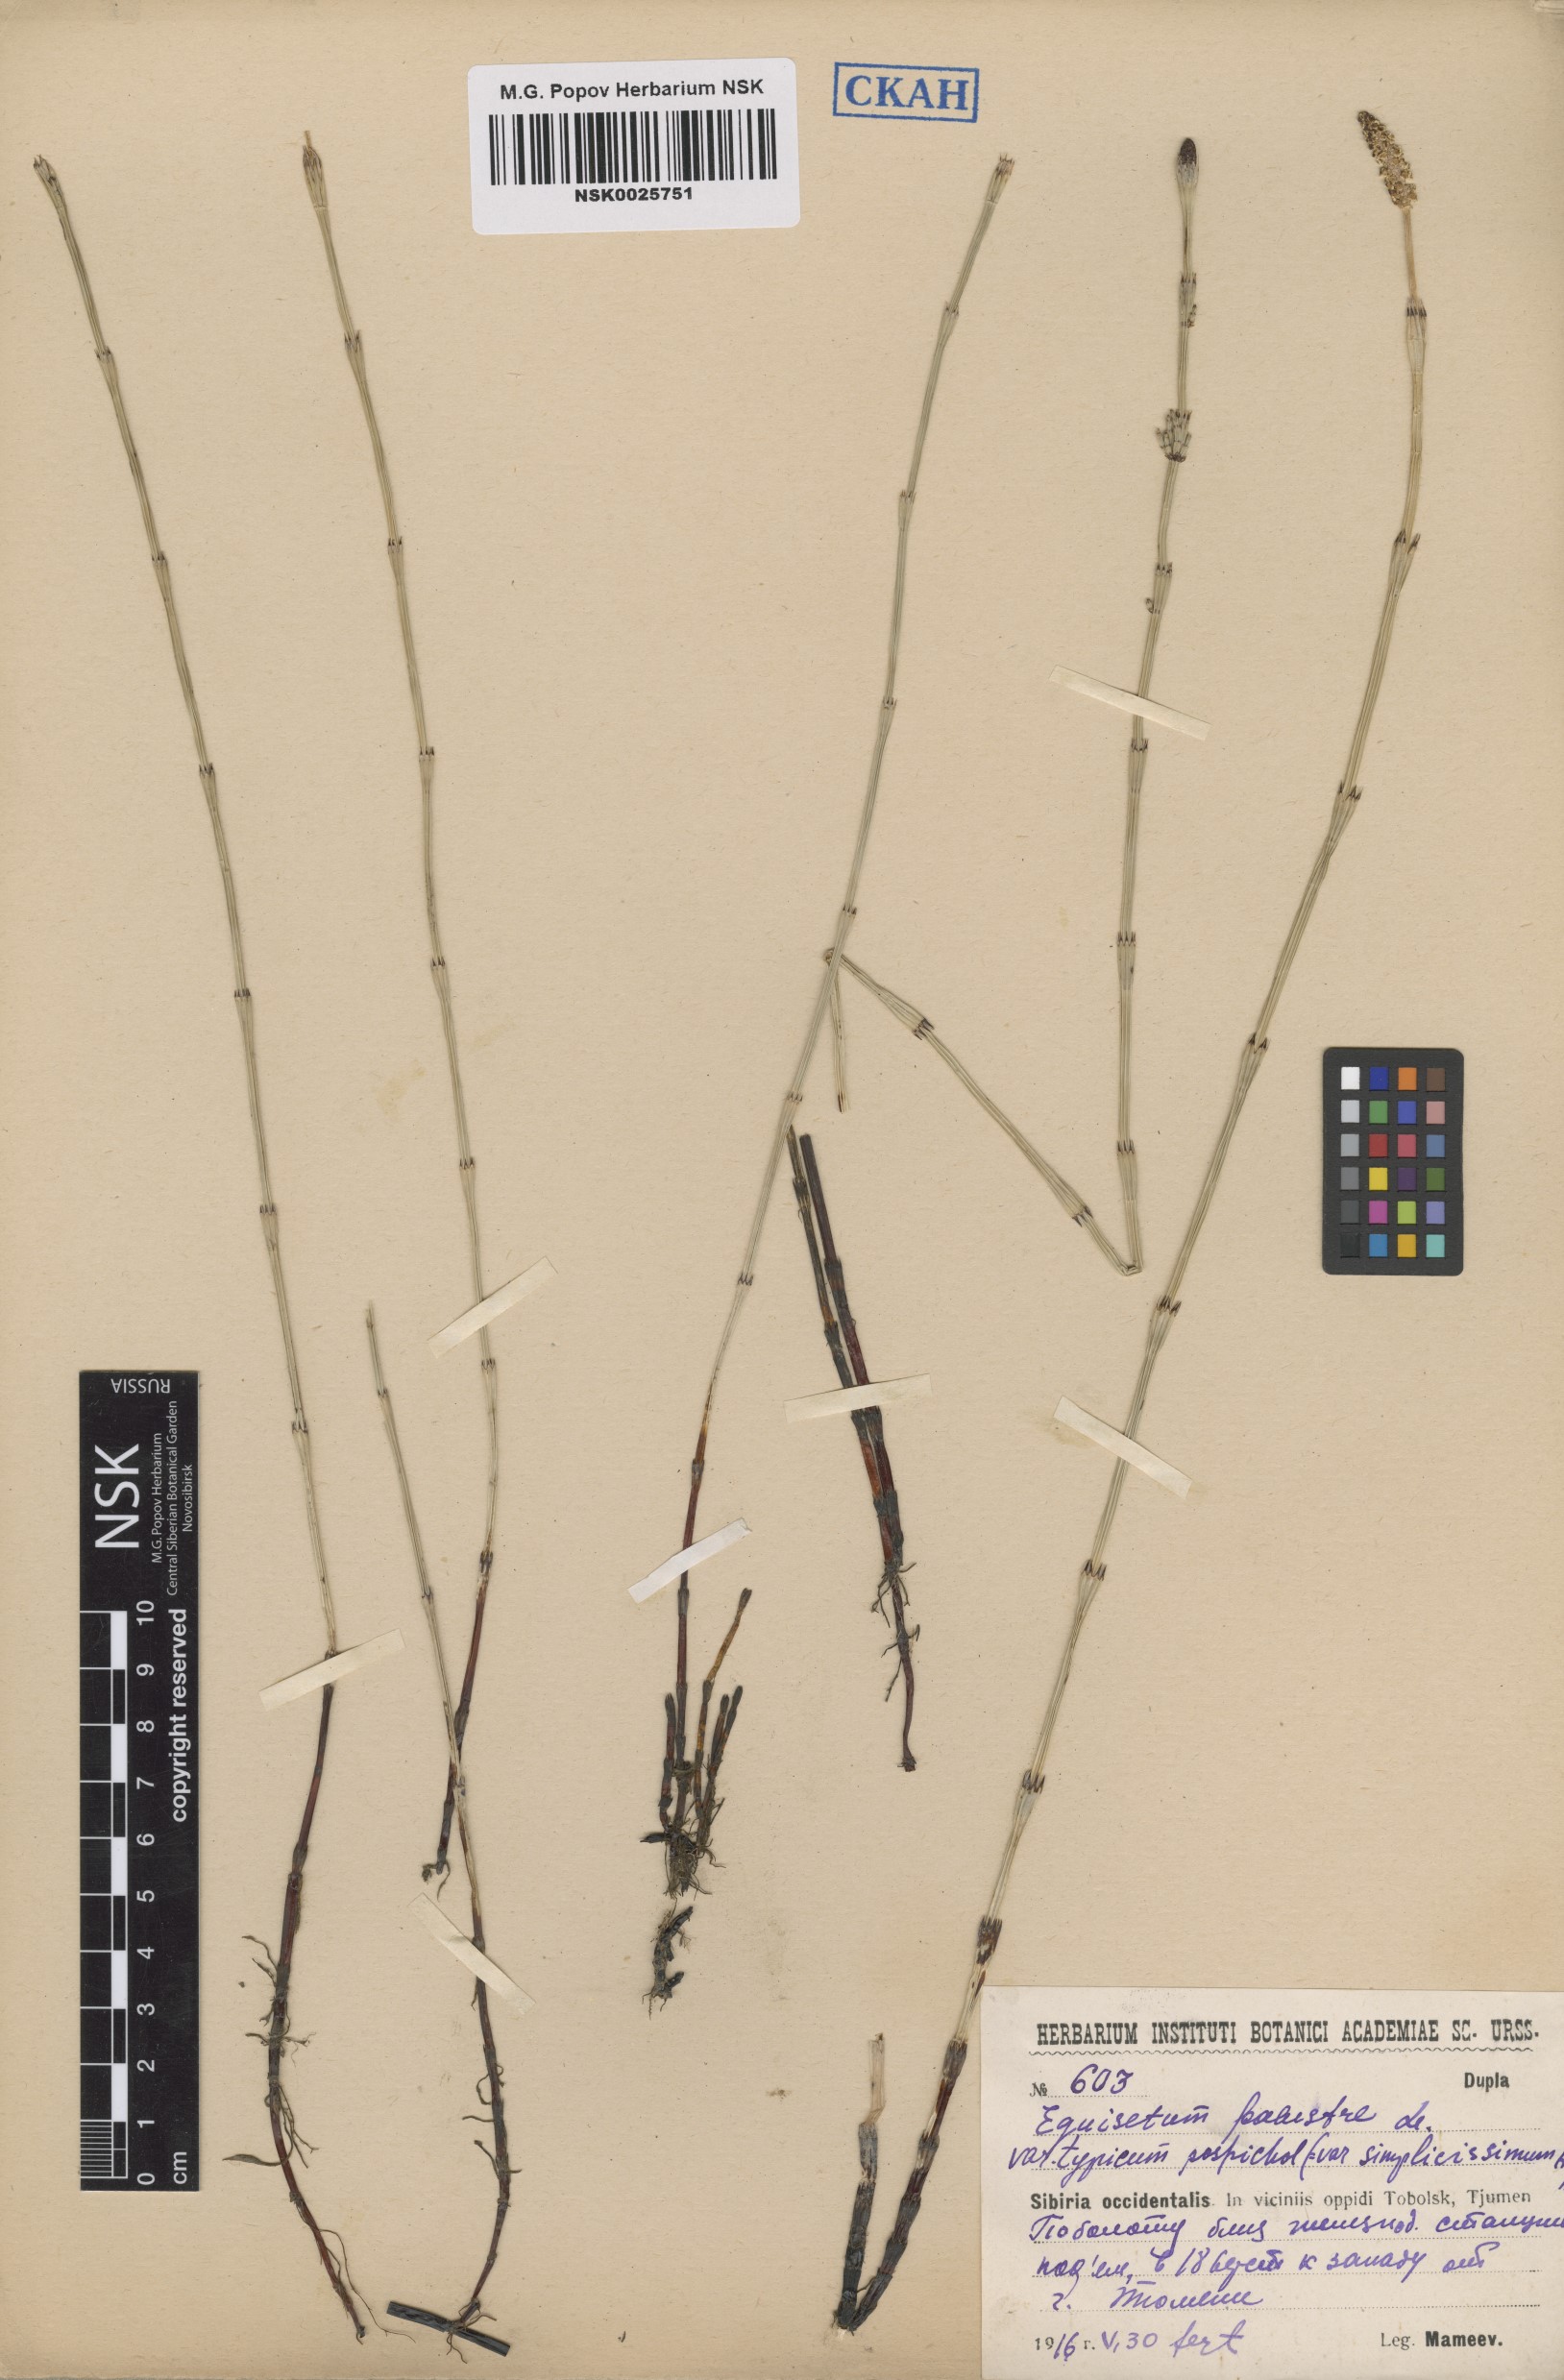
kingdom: Plantae
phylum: Tracheophyta
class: Polypodiopsida
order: Equisetales
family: Equisetaceae
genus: Equisetum
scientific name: Equisetum palustre
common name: Marsh horsetail
